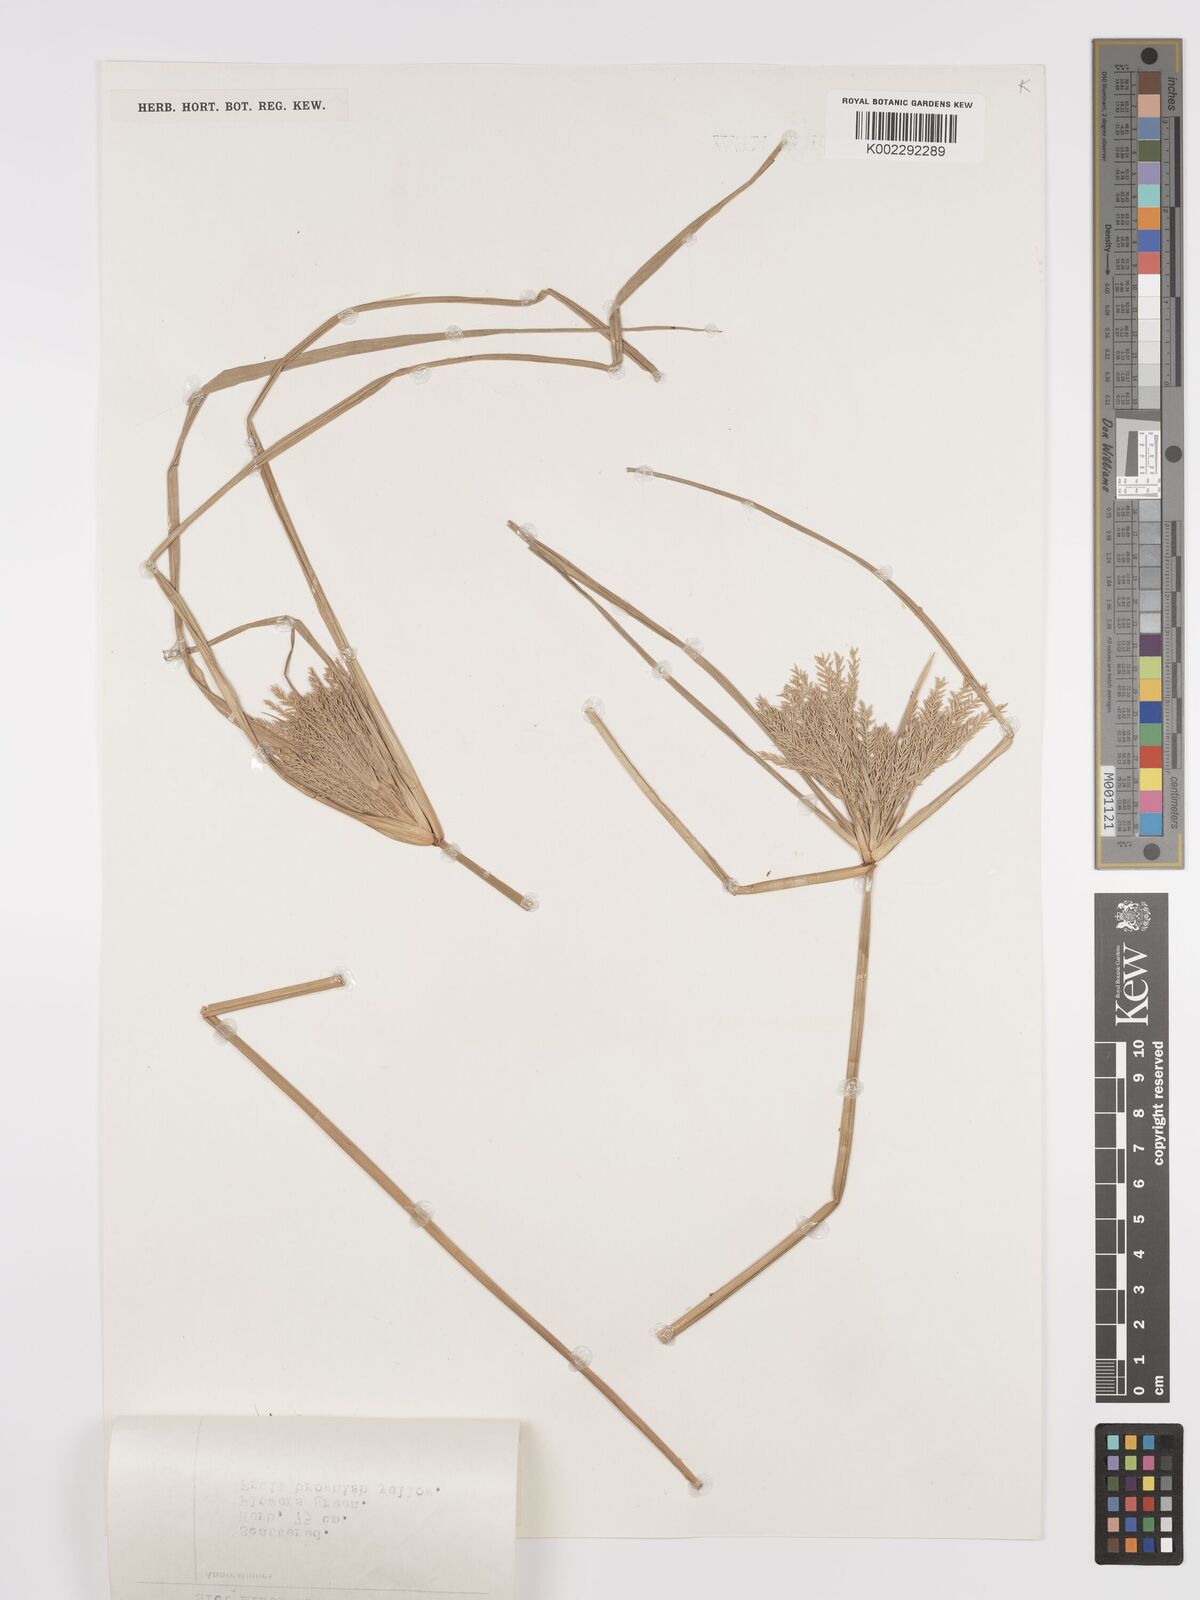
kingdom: Plantae
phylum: Tracheophyta
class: Liliopsida
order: Poales
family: Cyperaceae
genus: Cyperus
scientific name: Cyperus digitatus
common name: Finger flatsedge
